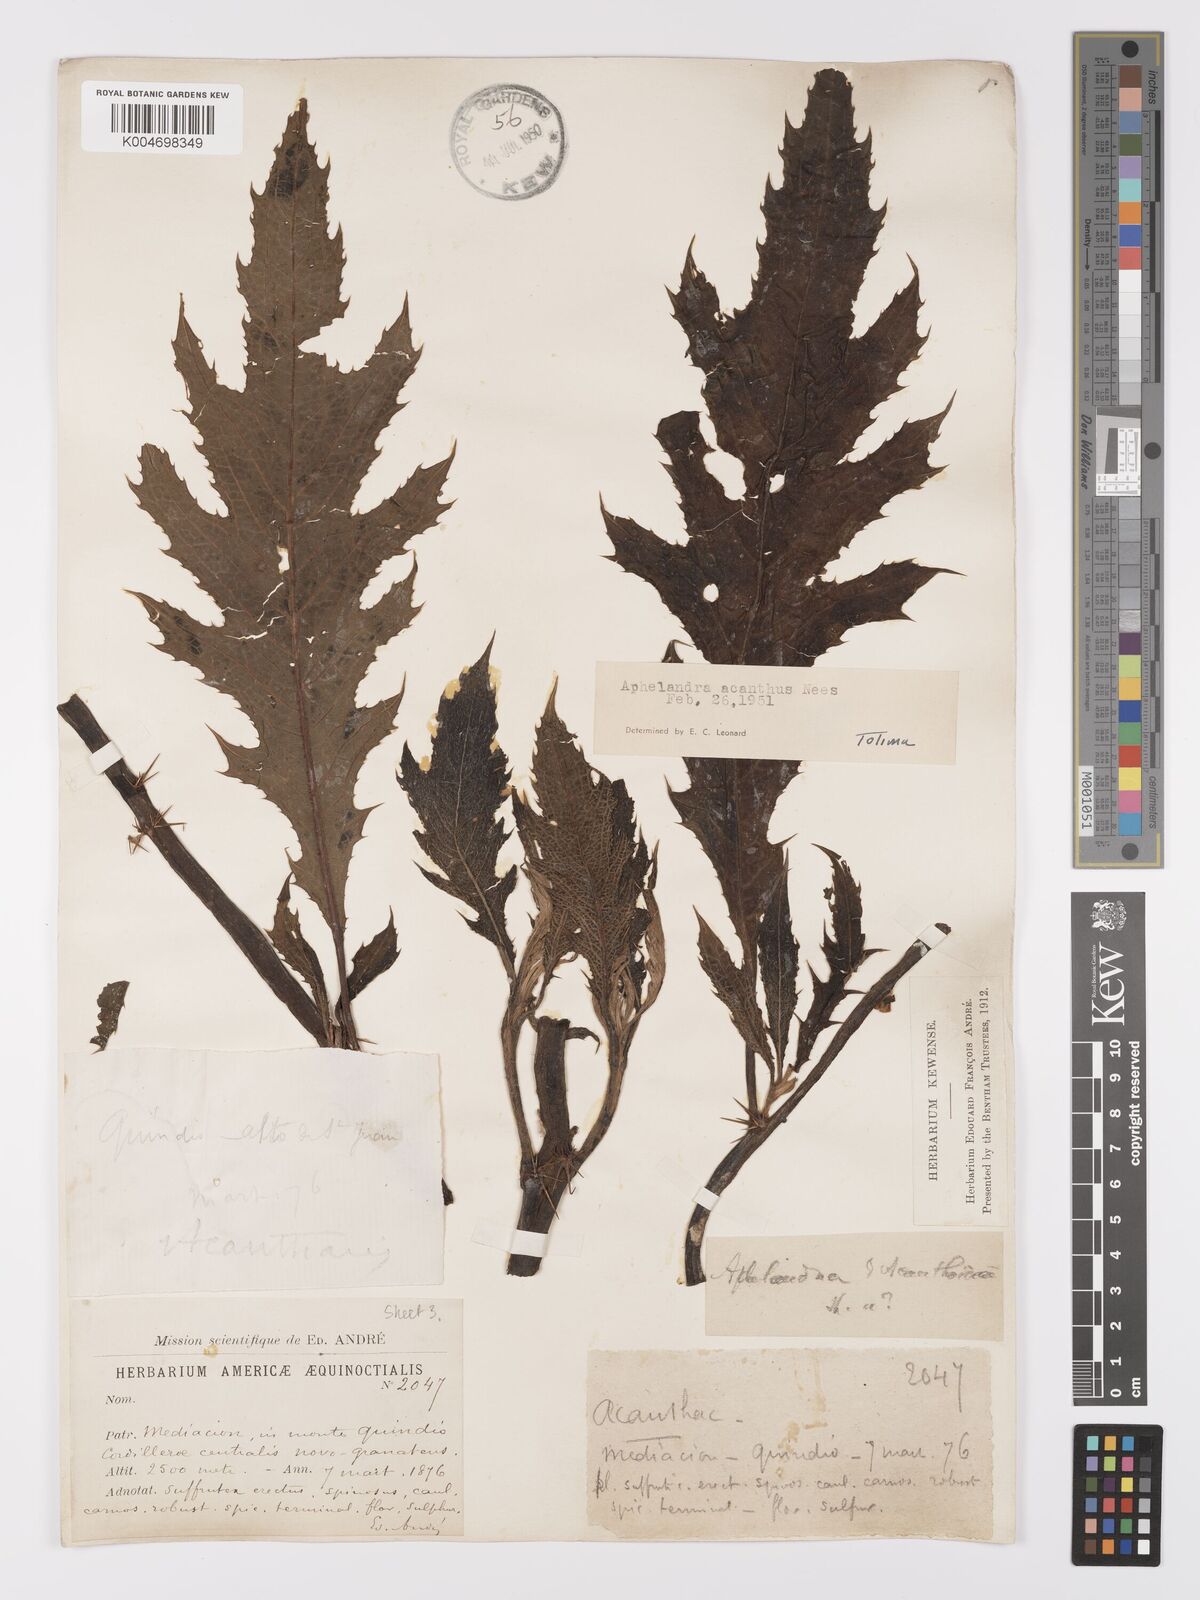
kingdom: Plantae
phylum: Tracheophyta
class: Magnoliopsida
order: Lamiales
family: Acanthaceae
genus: Aphelandra
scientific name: Aphelandra acanthus
